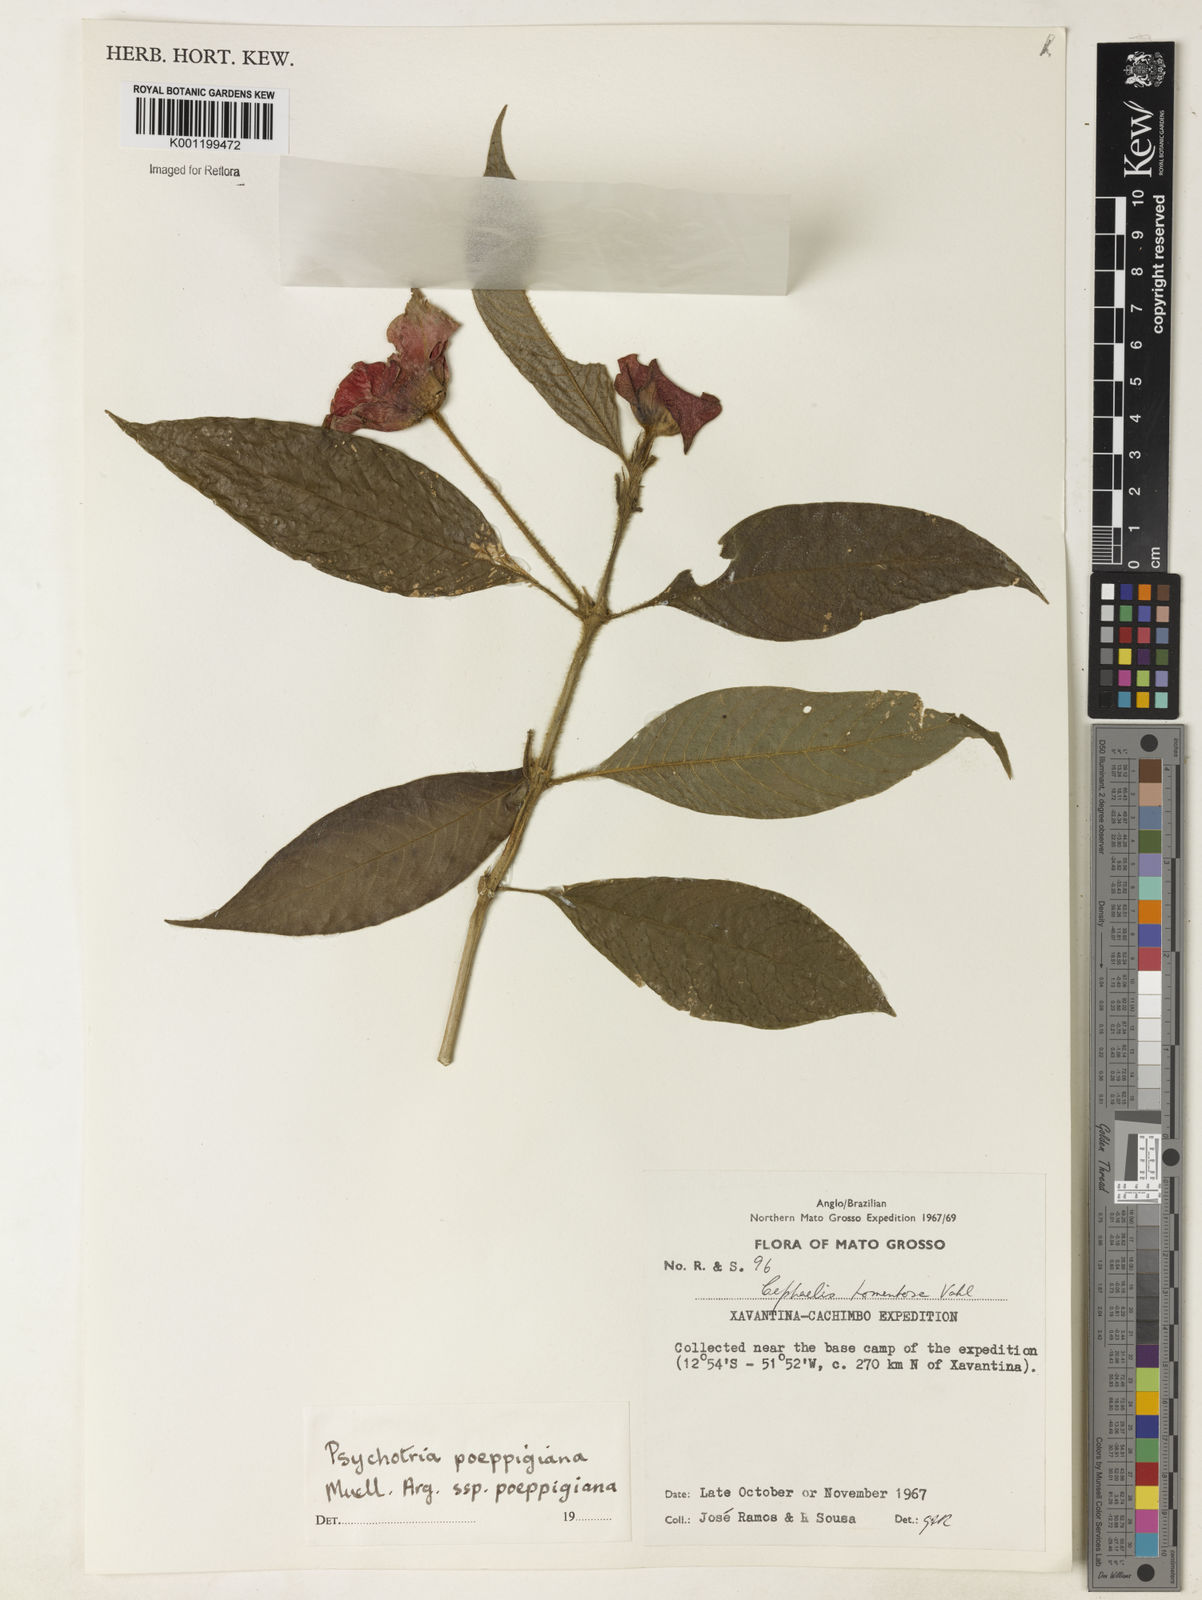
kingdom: Plantae
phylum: Tracheophyta
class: Magnoliopsida
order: Gentianales
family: Rubiaceae
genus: Psychotria
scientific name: Psychotria
